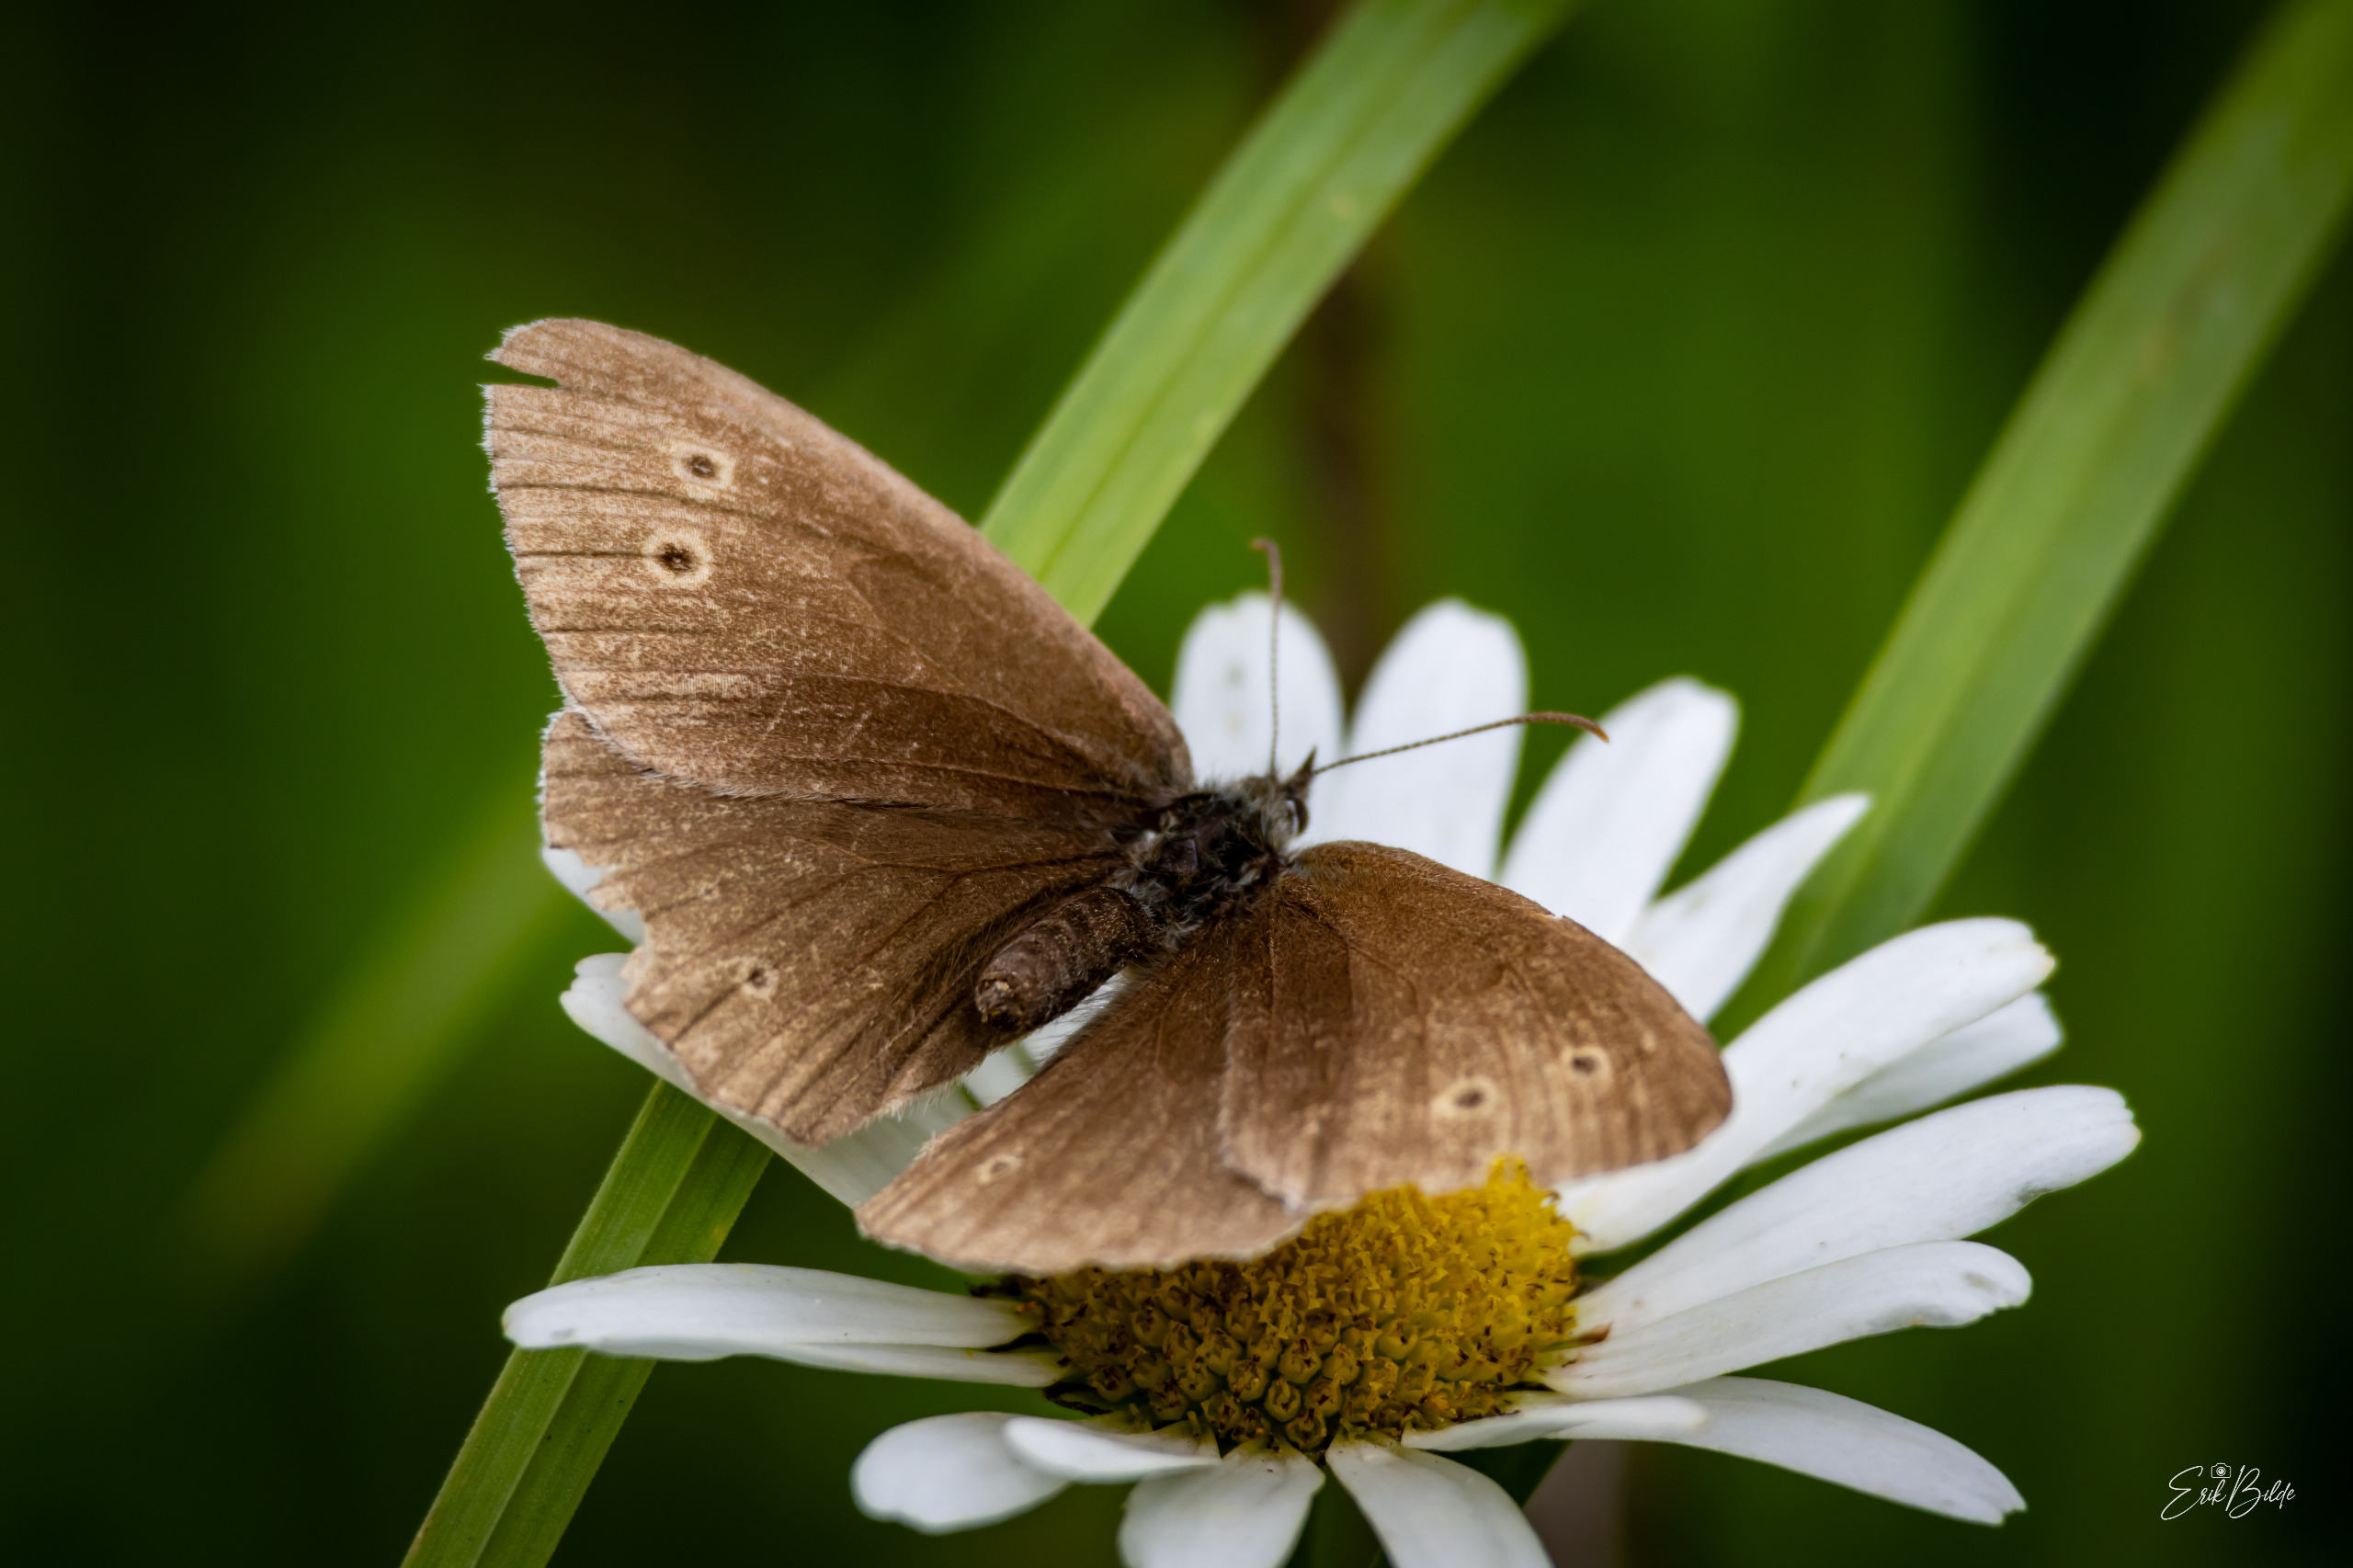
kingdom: Animalia
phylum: Arthropoda
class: Insecta
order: Lepidoptera
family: Nymphalidae
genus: Aphantopus
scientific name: Aphantopus hyperantus
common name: Engrandøje
